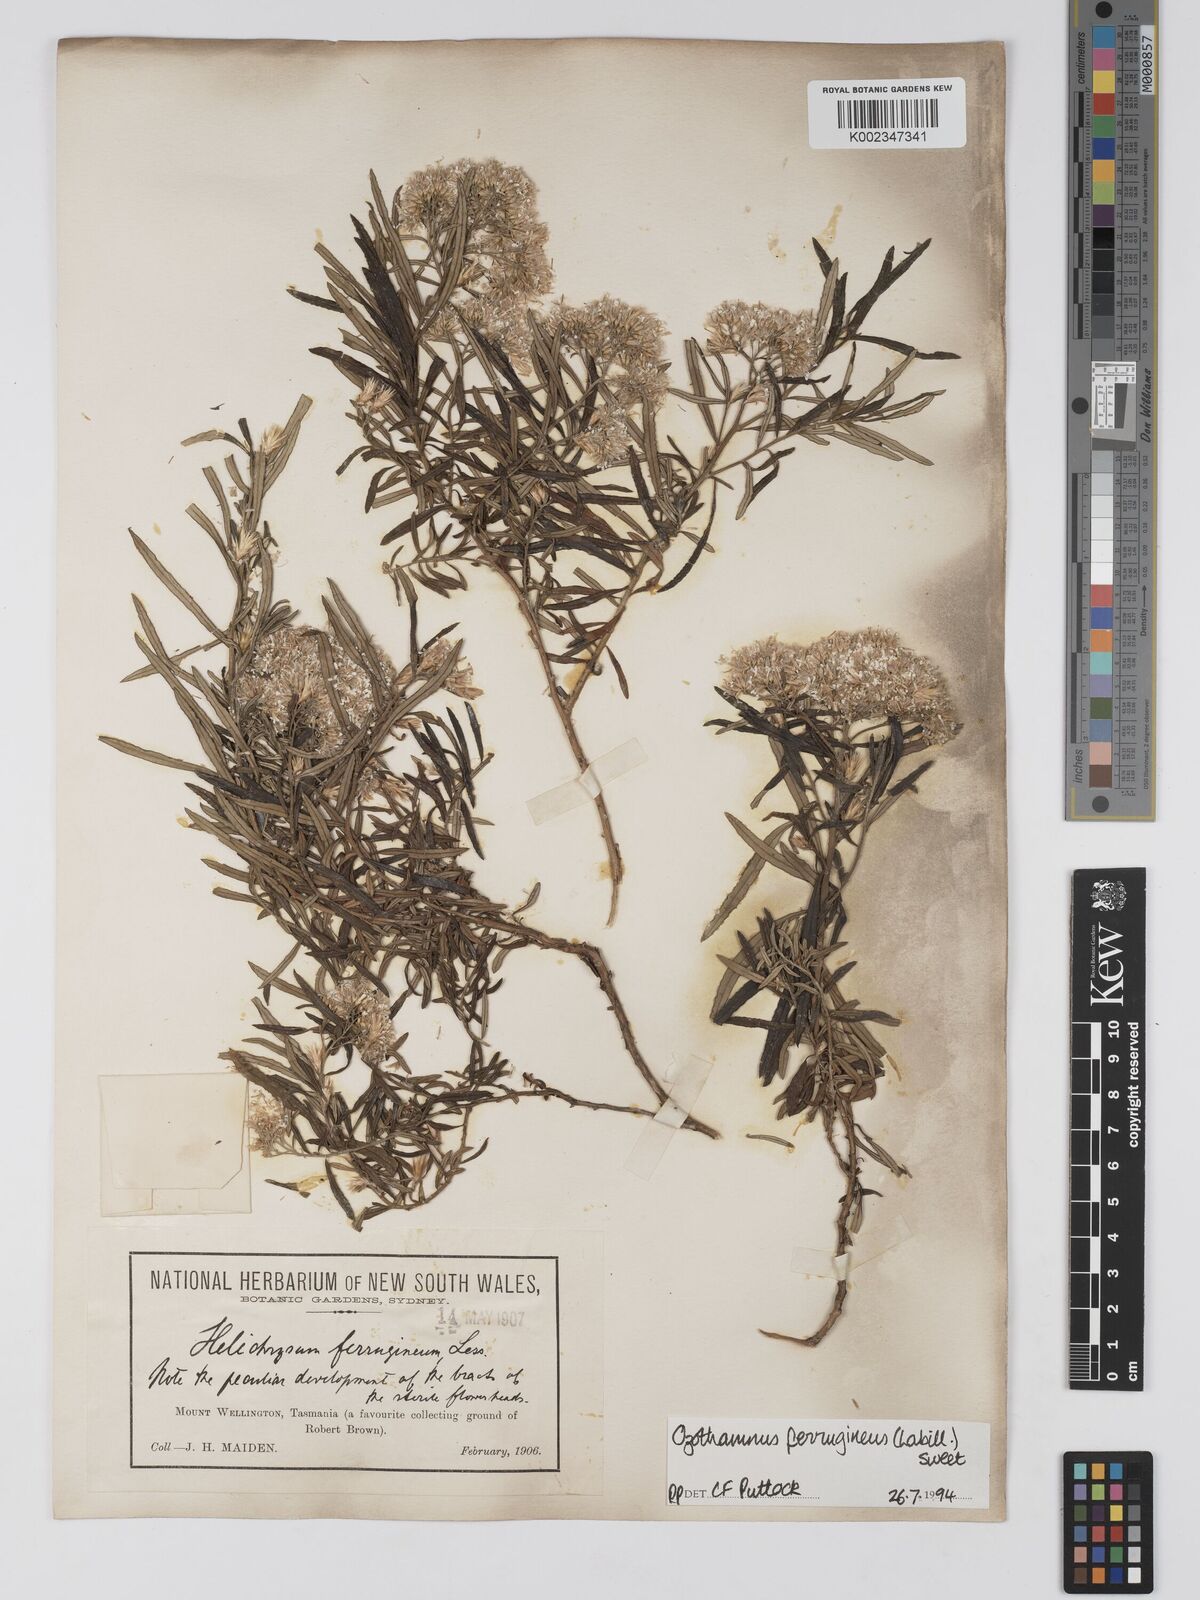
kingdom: Plantae
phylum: Tracheophyta
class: Magnoliopsida
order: Asterales
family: Asteraceae
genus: Ozothamnus
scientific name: Ozothamnus ferrugineus
